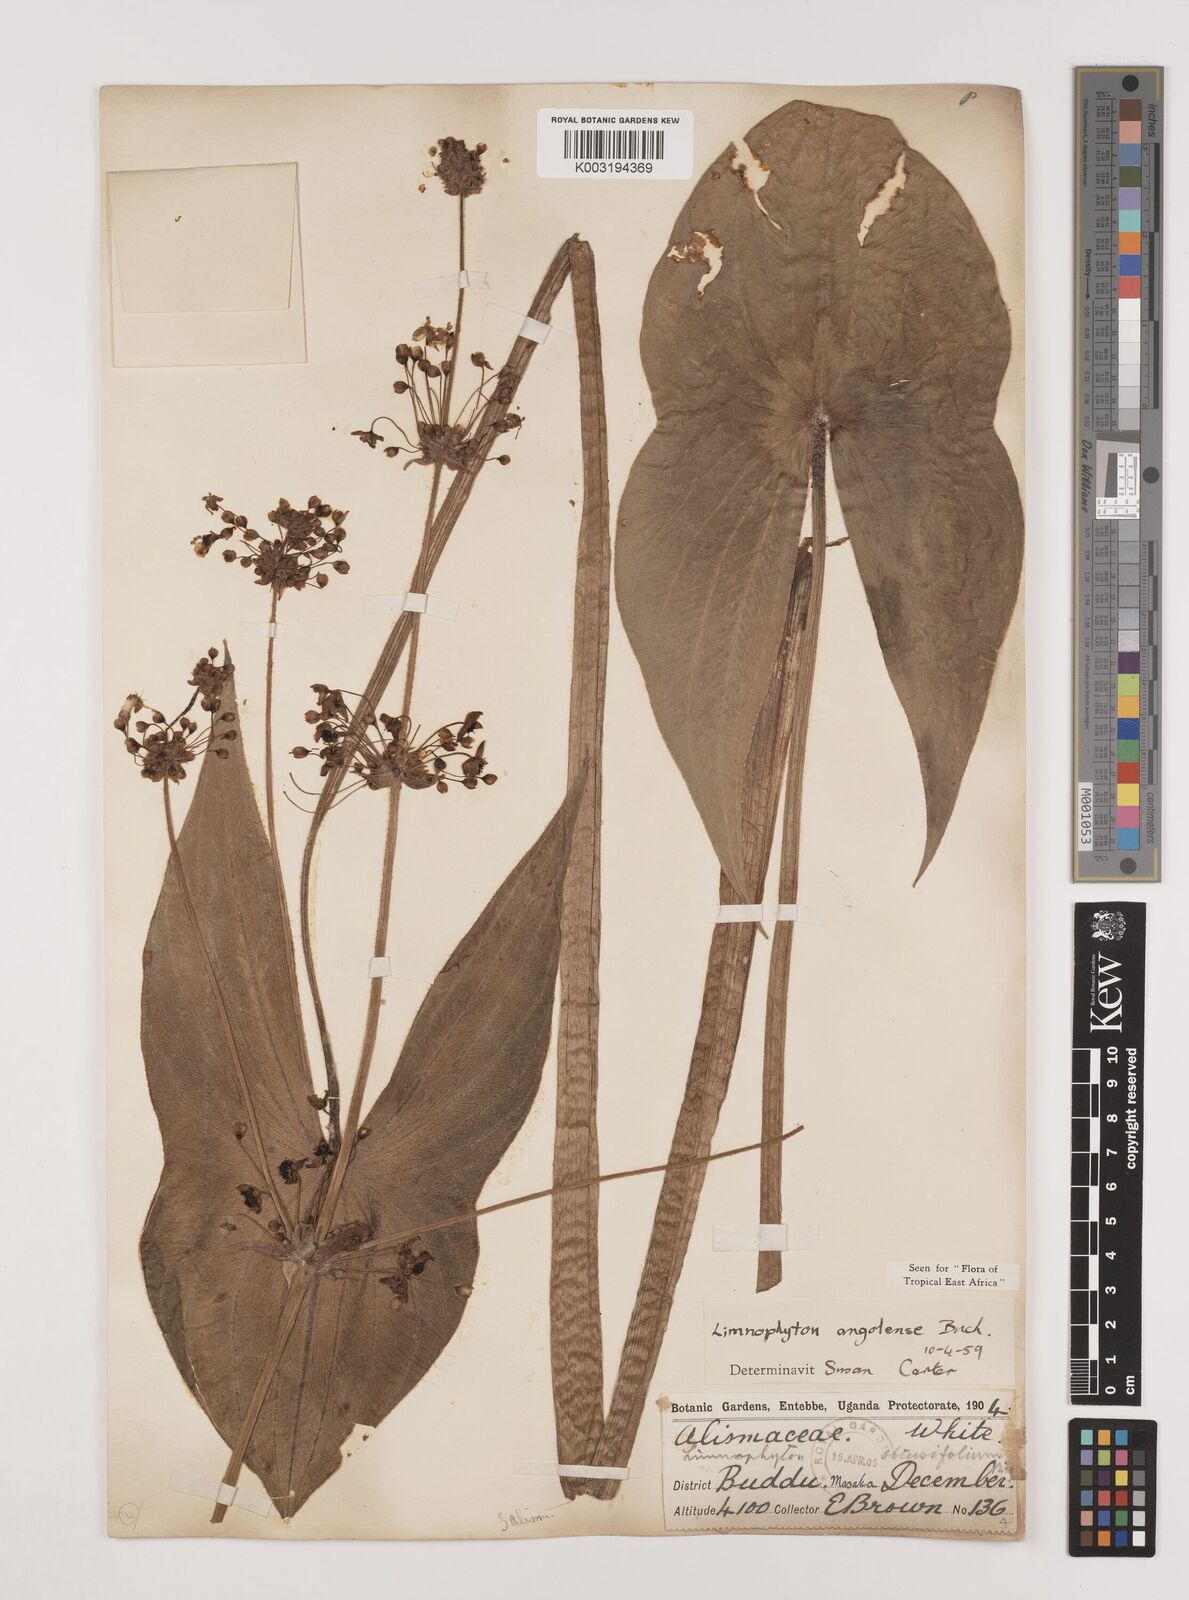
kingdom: Plantae
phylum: Tracheophyta
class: Liliopsida
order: Alismatales
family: Alismataceae
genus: Limnophyton
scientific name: Limnophyton angolense
